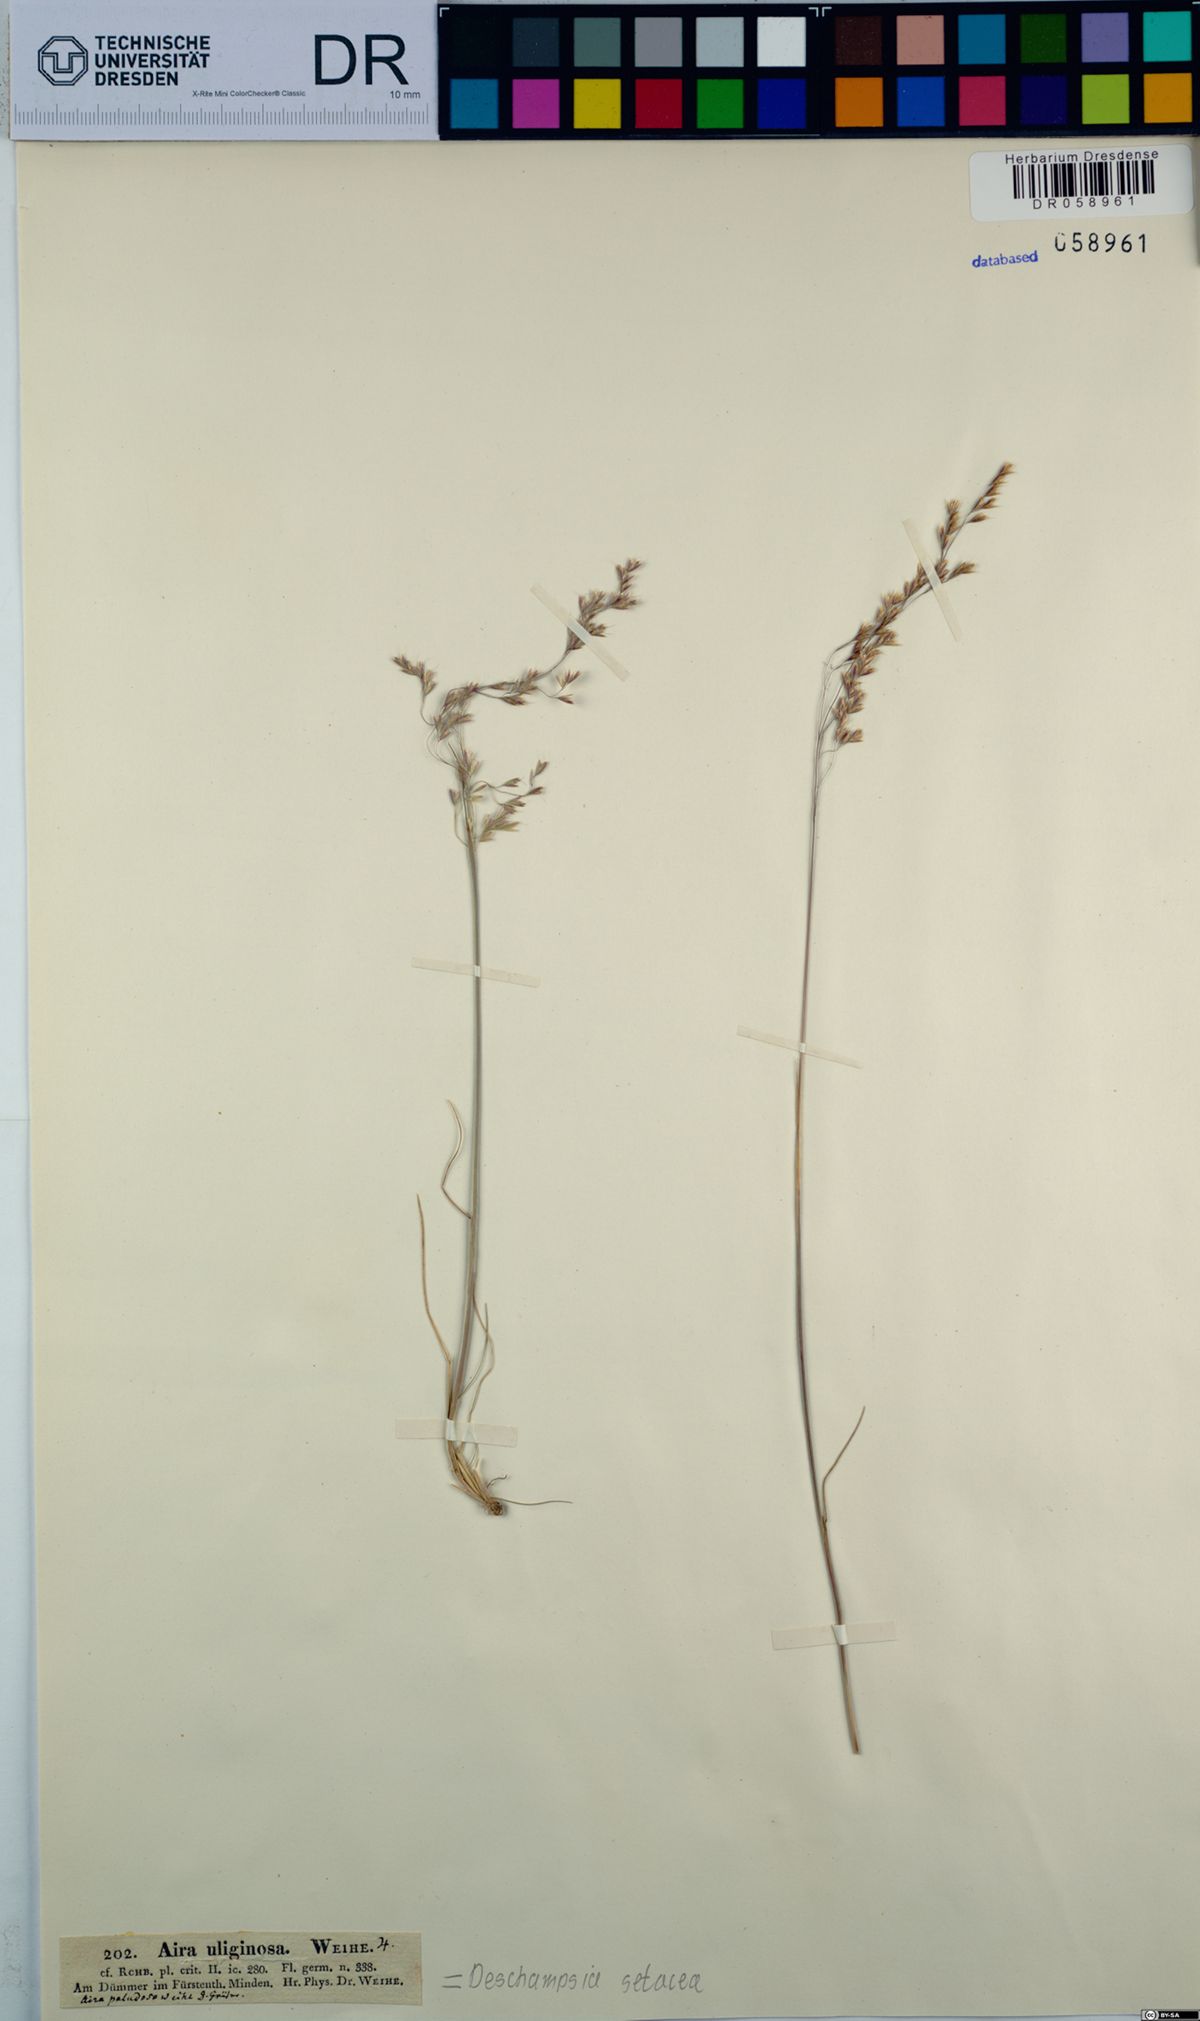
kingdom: Plantae
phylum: Tracheophyta
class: Liliopsida
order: Poales
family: Poaceae
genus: Deschampsia
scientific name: Deschampsia setacea
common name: Bog hair-grass
